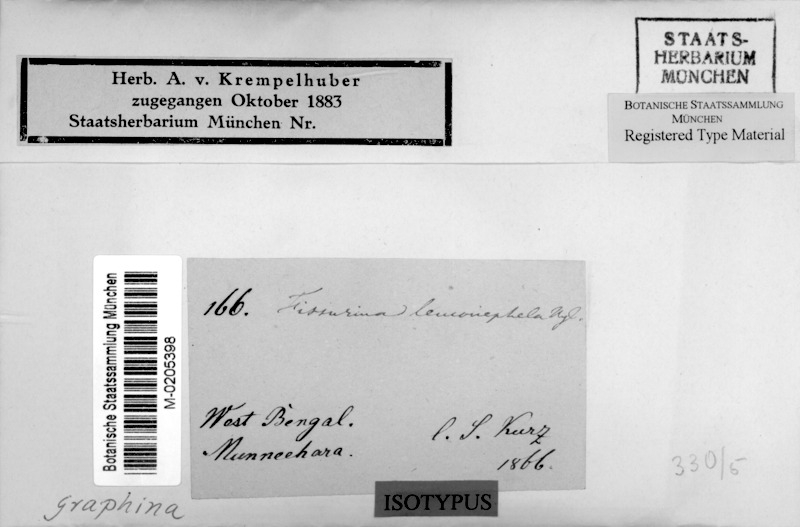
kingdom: Fungi
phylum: Ascomycota
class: Lecanoromycetes
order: Ostropales
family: Graphidaceae
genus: Fissurina
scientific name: Fissurina
